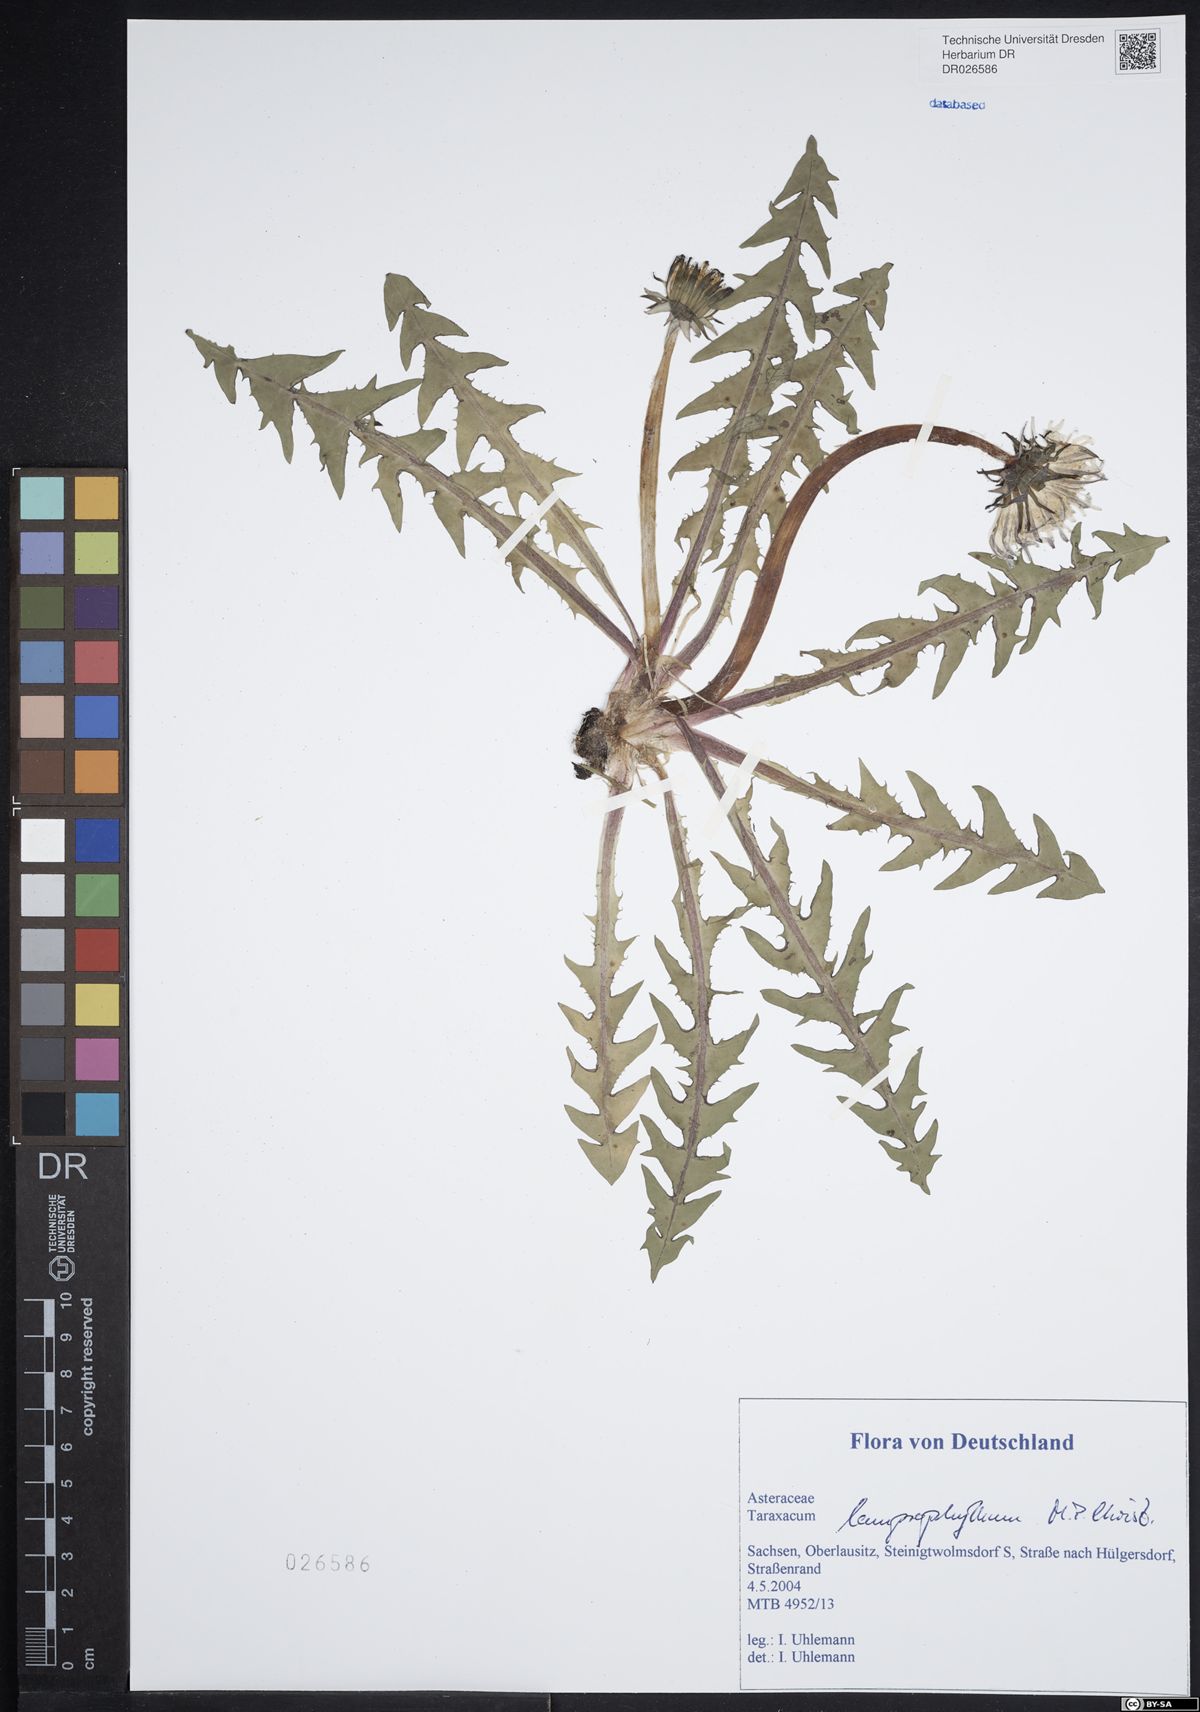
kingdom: Plantae
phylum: Tracheophyta
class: Magnoliopsida
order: Asterales
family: Asteraceae
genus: Taraxacum
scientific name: Taraxacum lamprophyllum
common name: Lustrous-leaved dandelion
